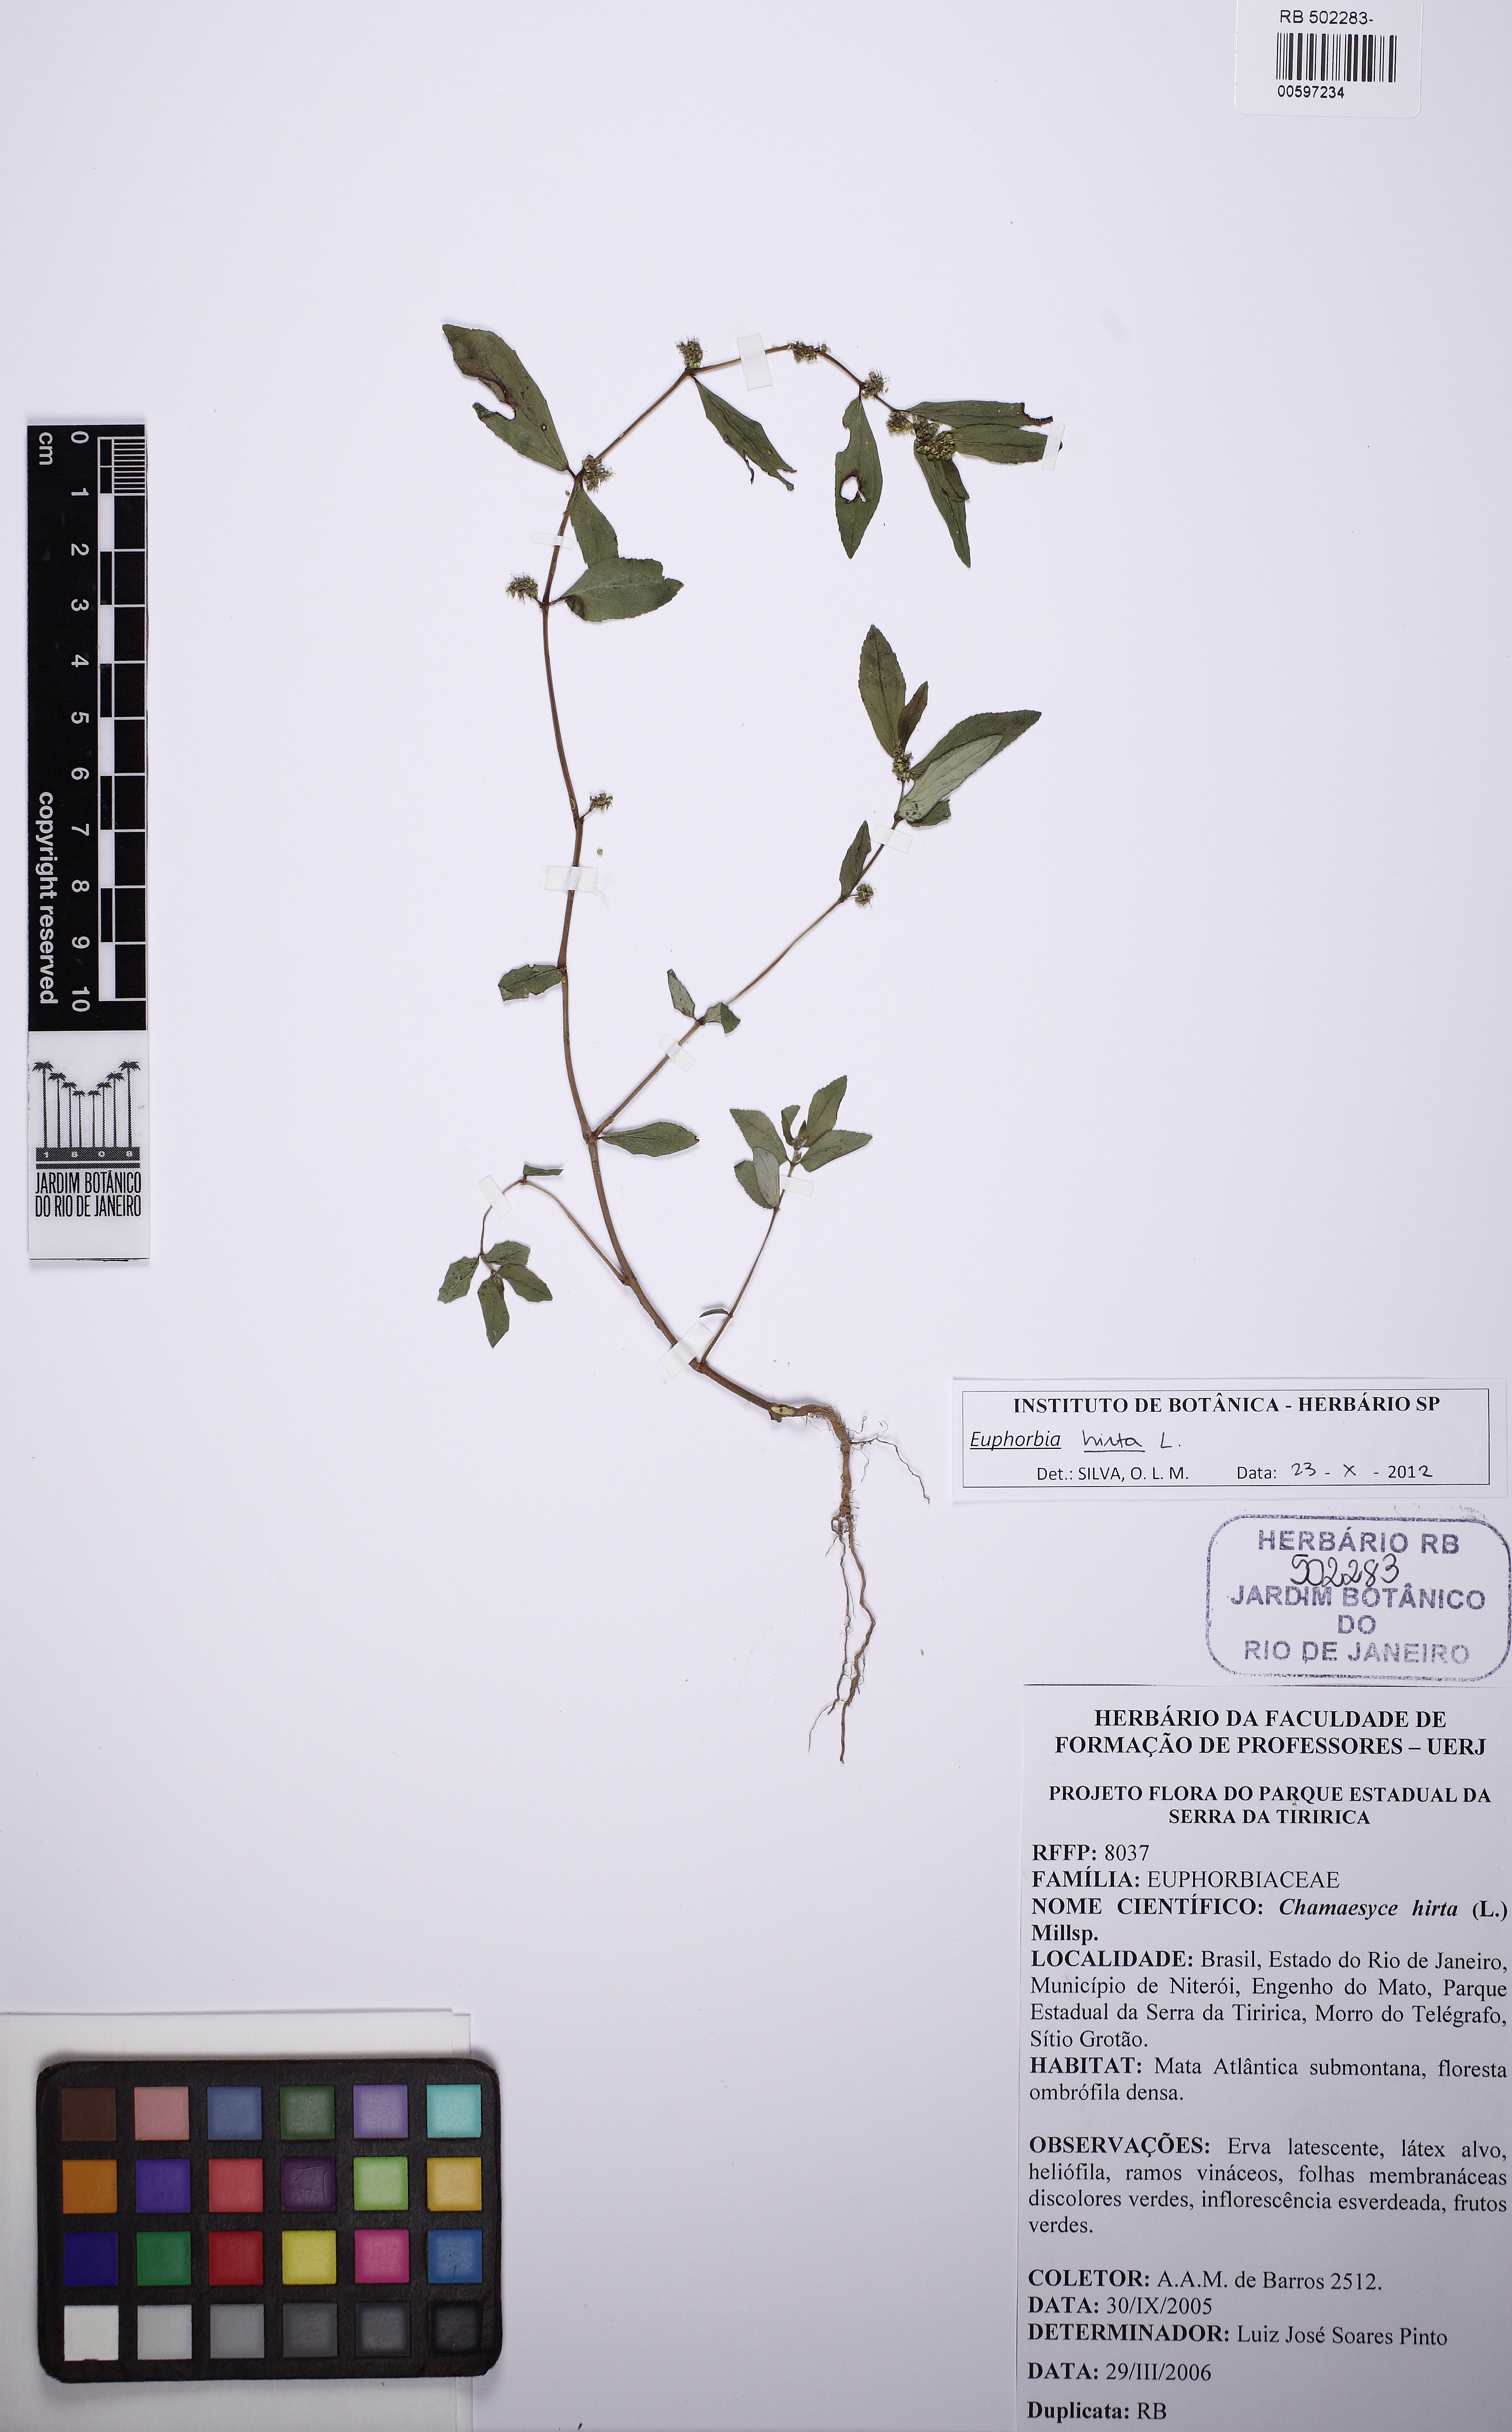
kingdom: Plantae
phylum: Tracheophyta
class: Magnoliopsida
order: Malpighiales
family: Euphorbiaceae
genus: Euphorbia
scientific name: Euphorbia hirta
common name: Pillpod sandmat
